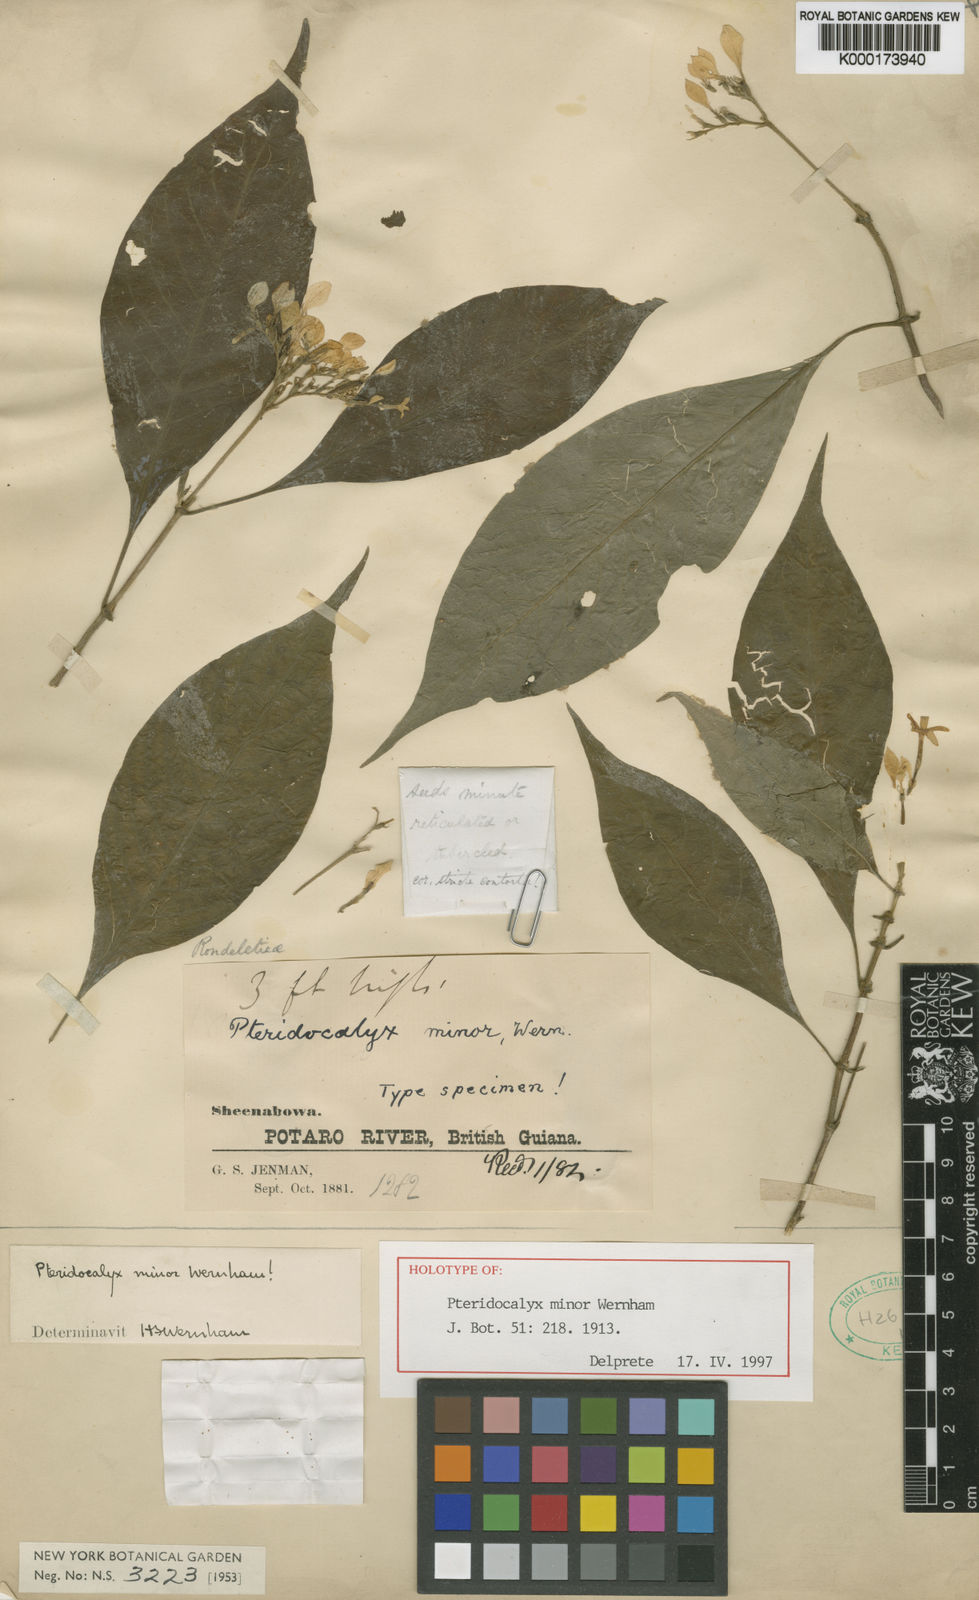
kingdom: Plantae
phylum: Tracheophyta
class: Magnoliopsida
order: Gentianales
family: Rubiaceae
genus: Pteridocalyx
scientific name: Pteridocalyx appunii
